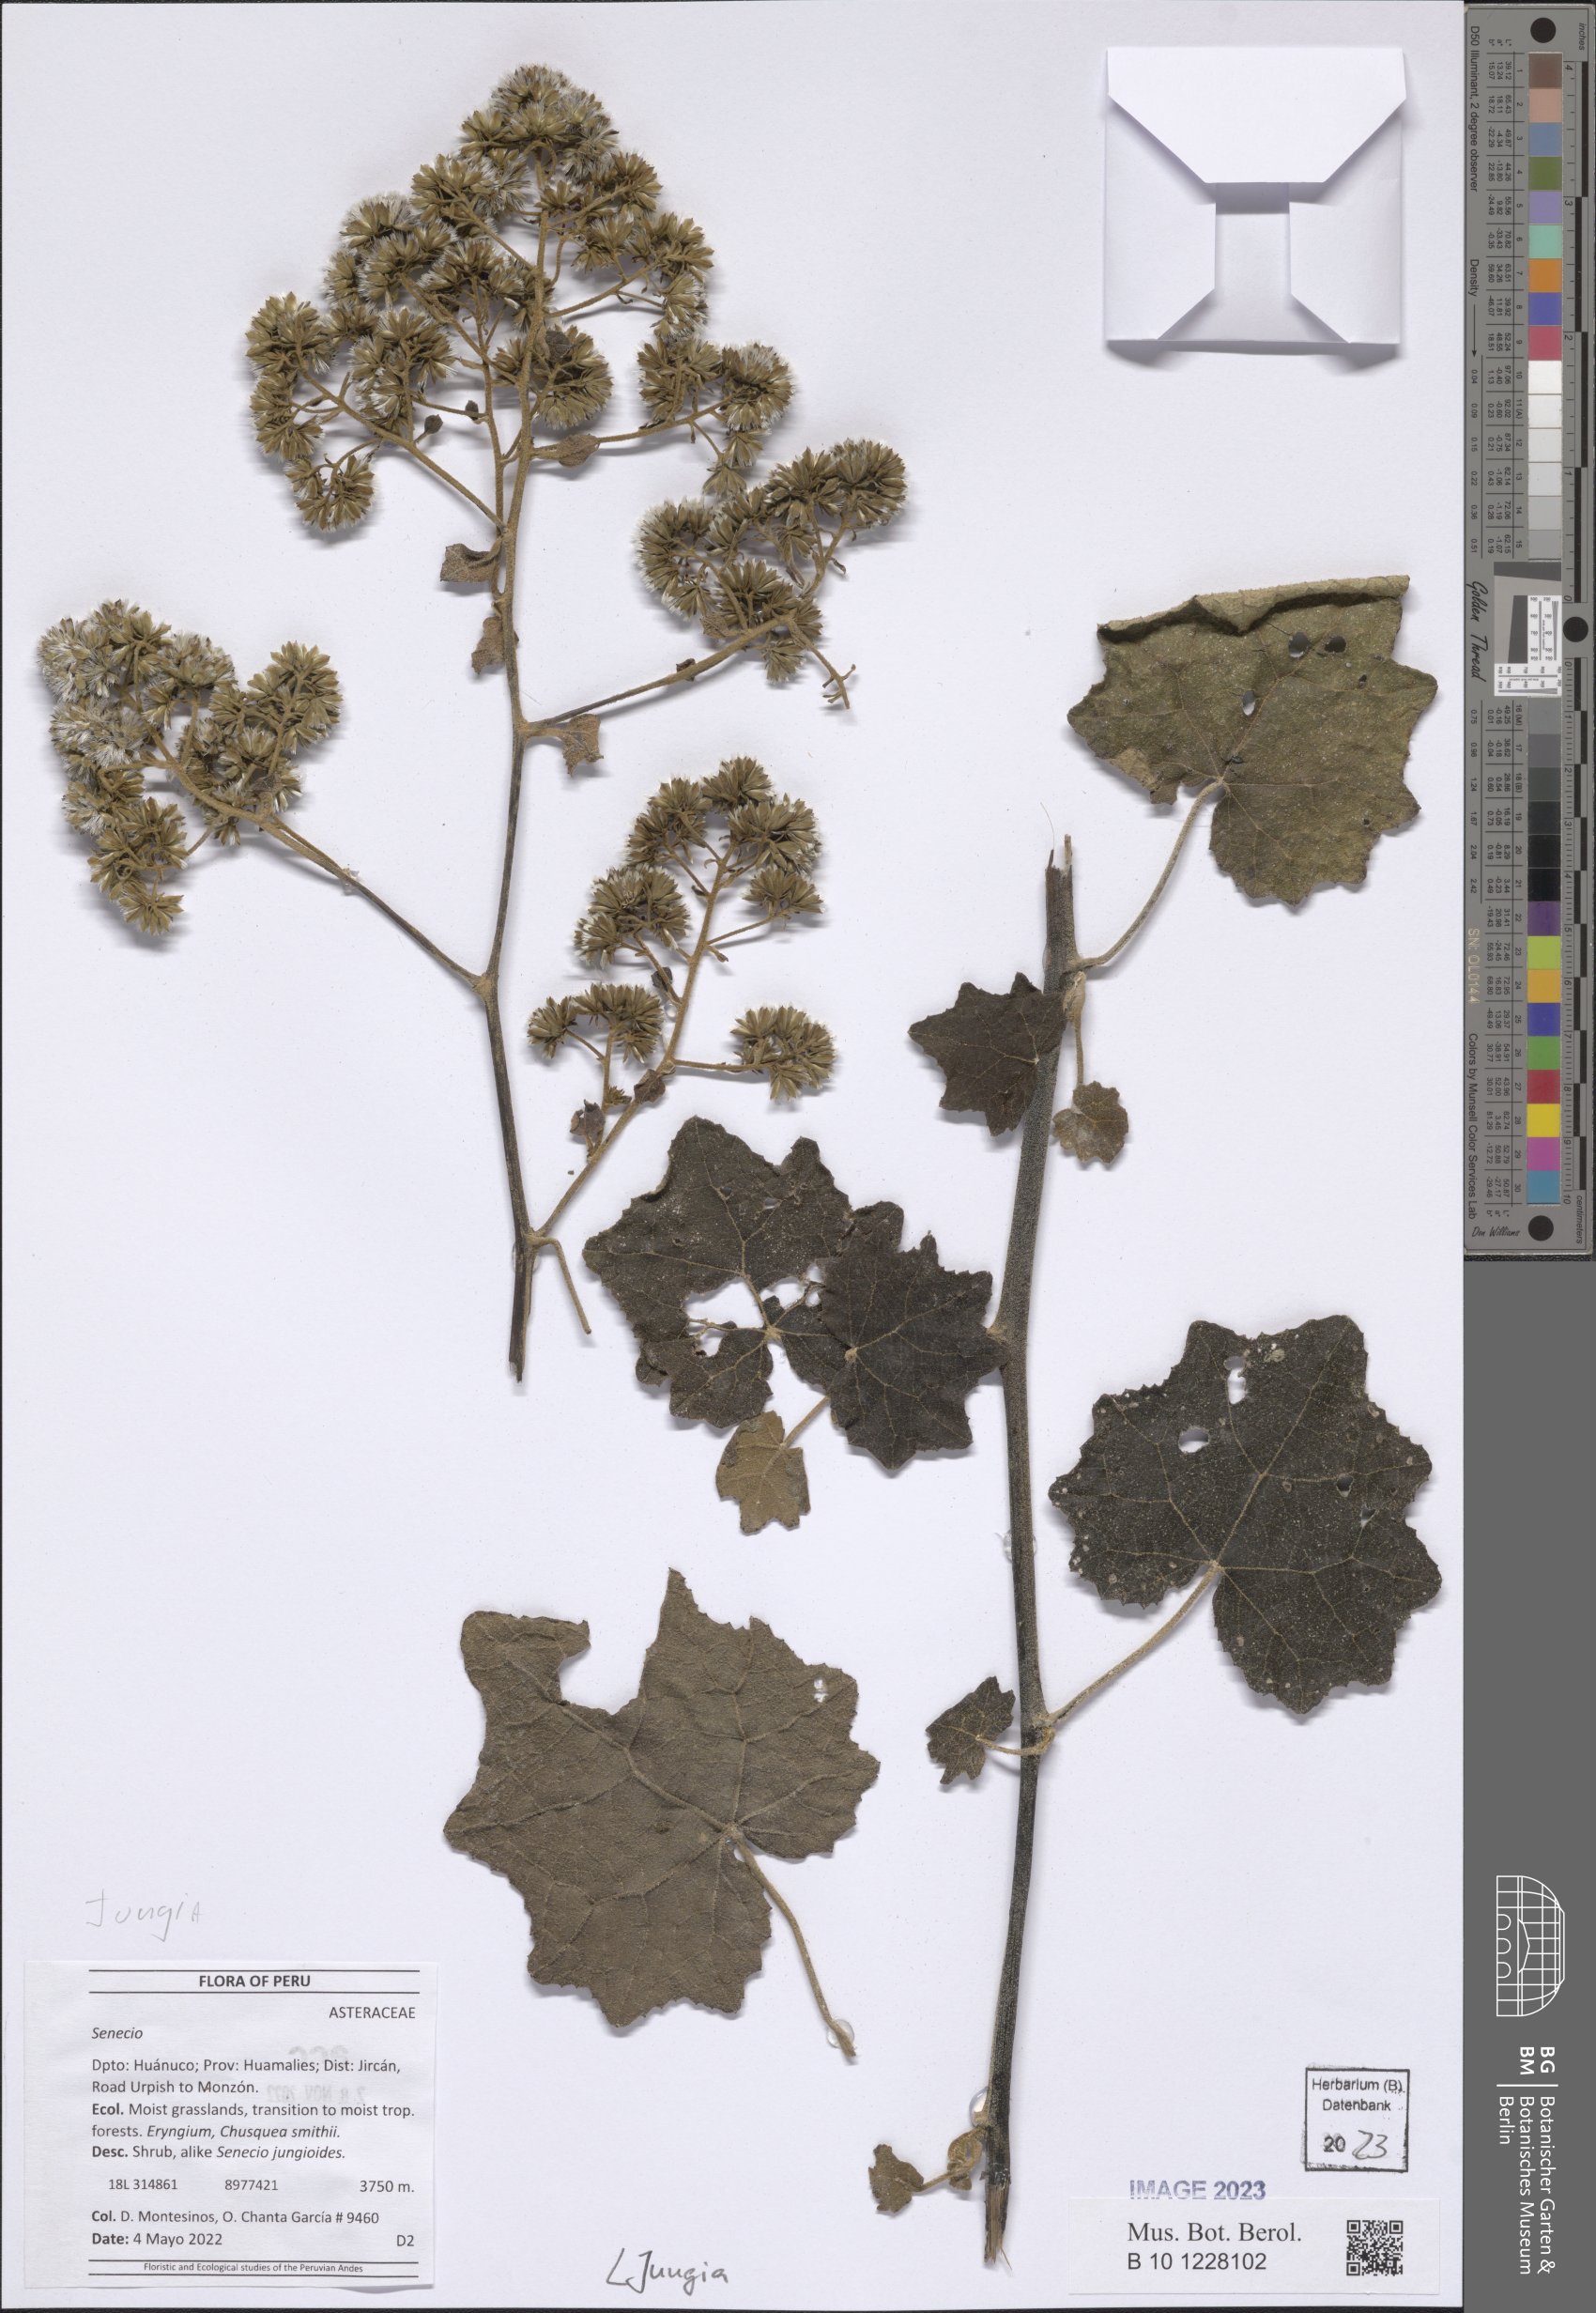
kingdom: Plantae
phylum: Tracheophyta
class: Magnoliopsida
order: Asterales
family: Asteraceae
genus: Jungia
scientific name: Jungia
